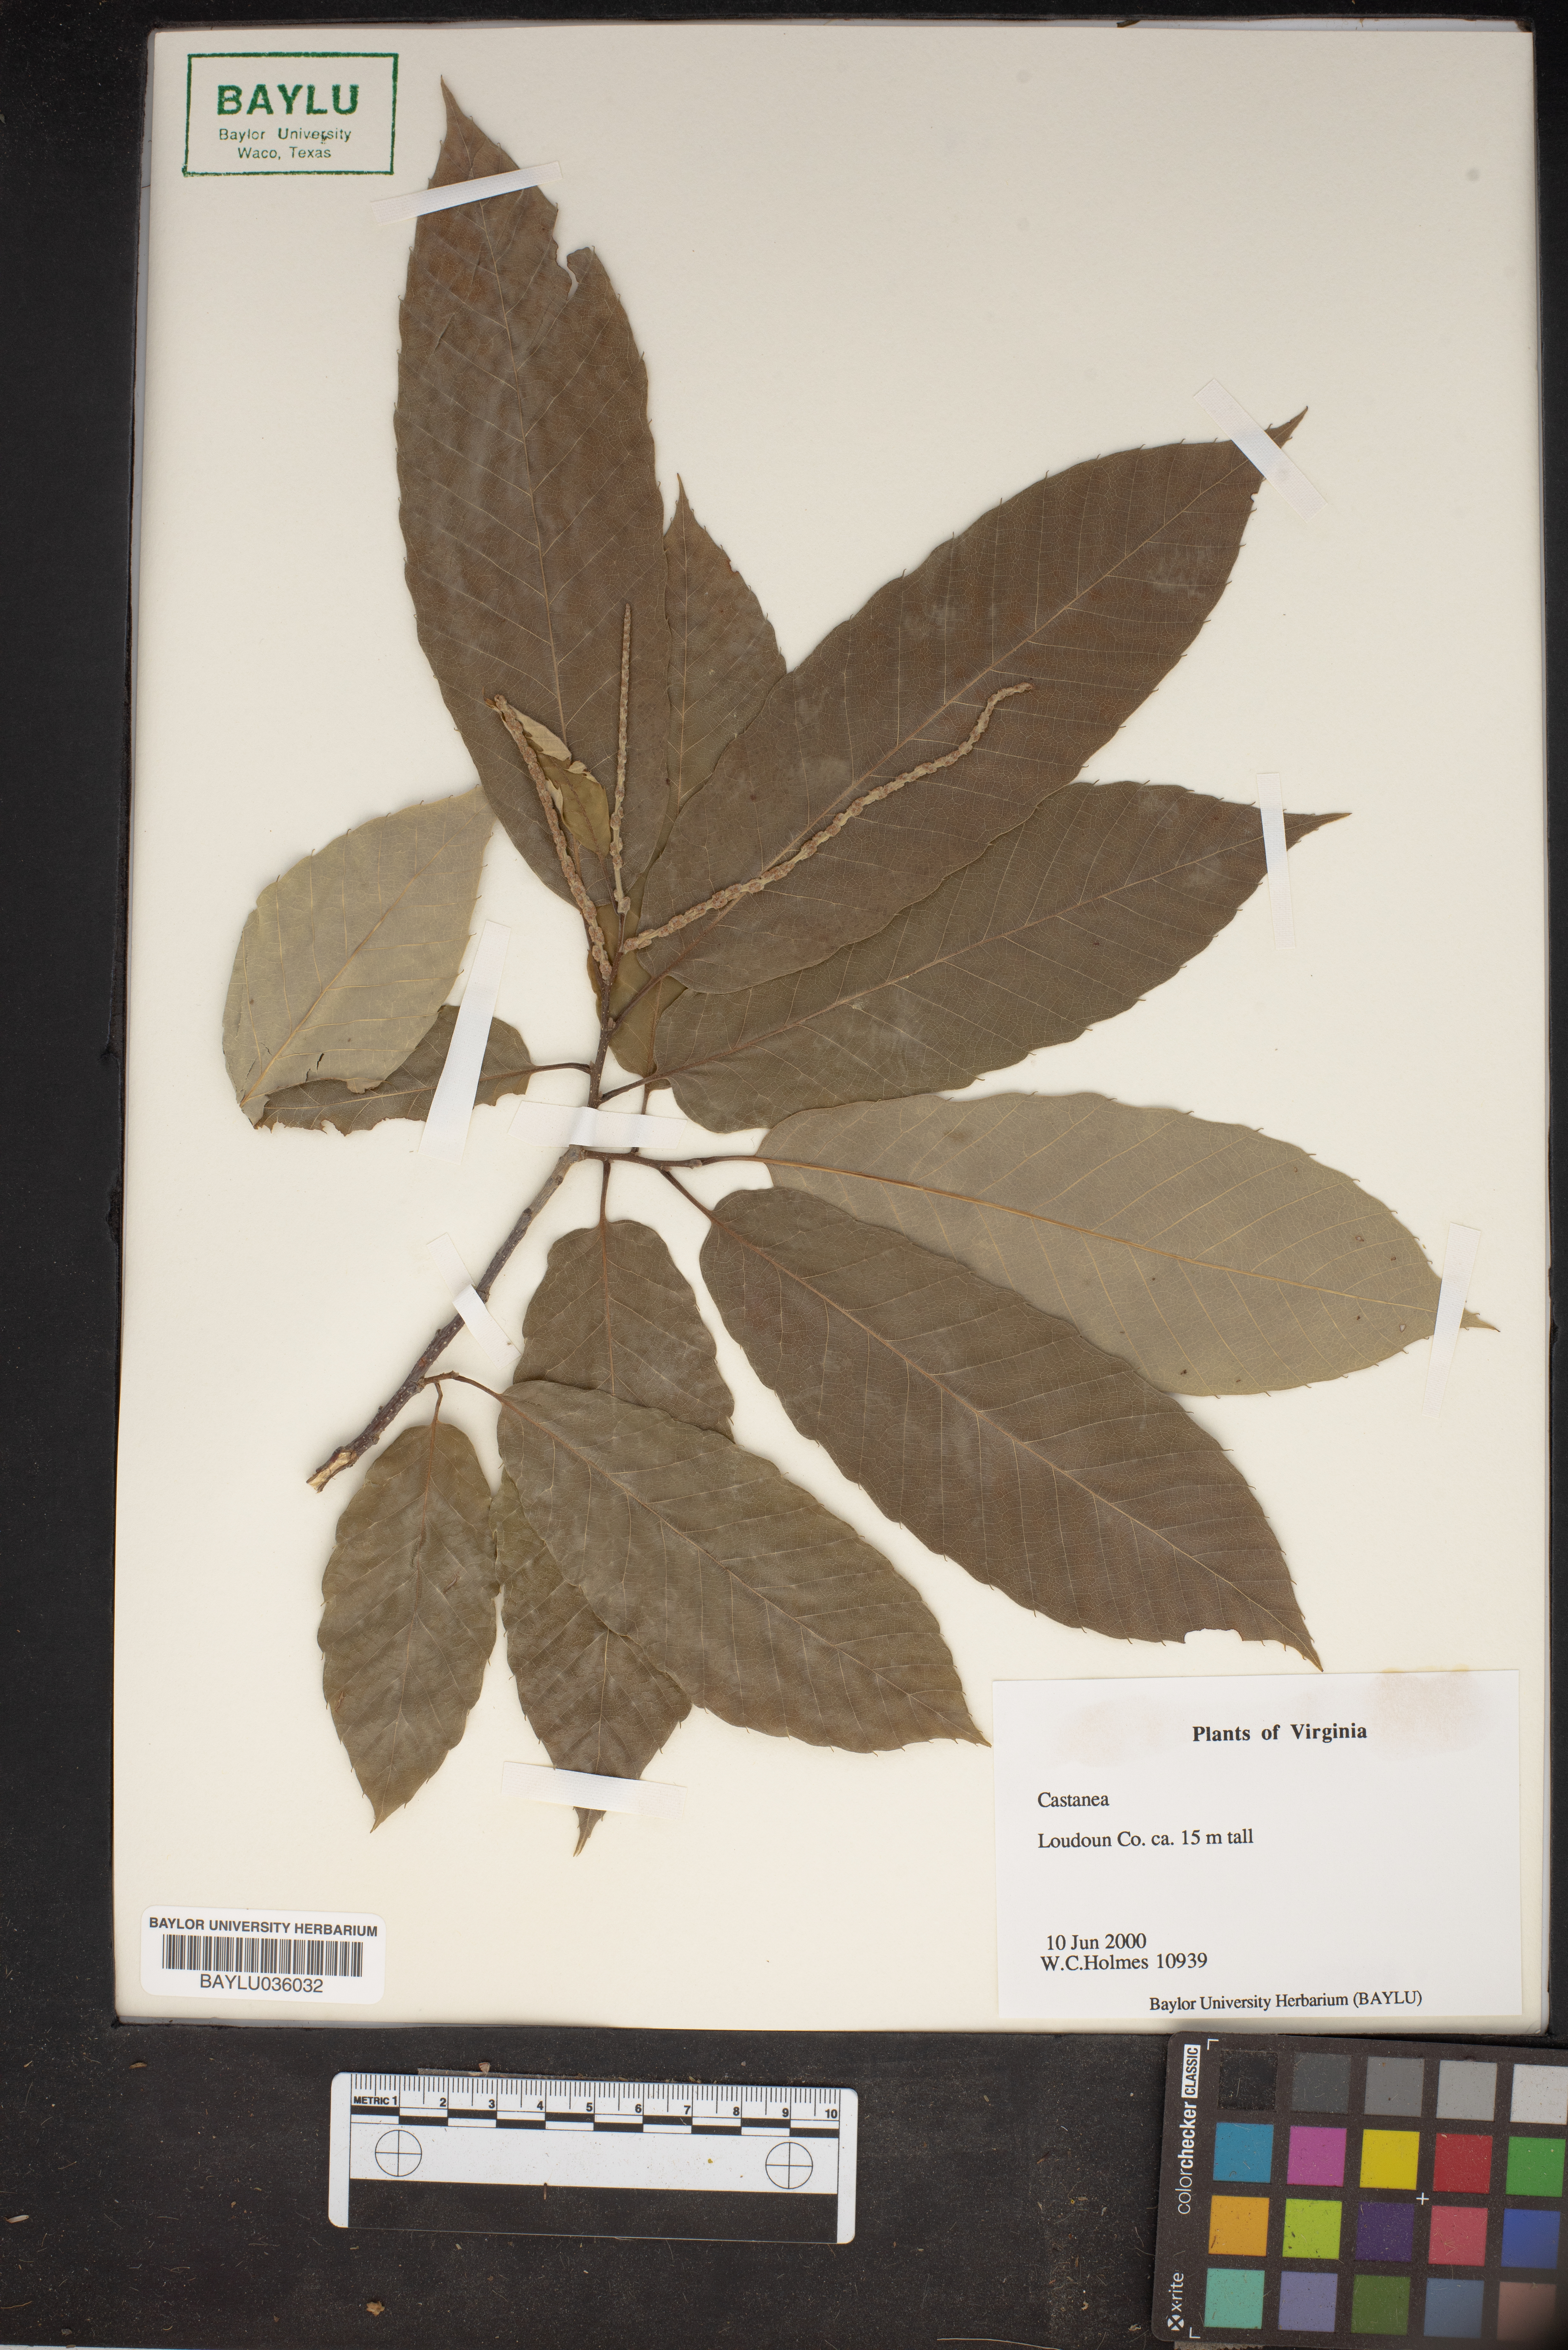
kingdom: Plantae
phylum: Tracheophyta
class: Magnoliopsida
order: Fagales
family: Fagaceae
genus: Castanea
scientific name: Castanea
